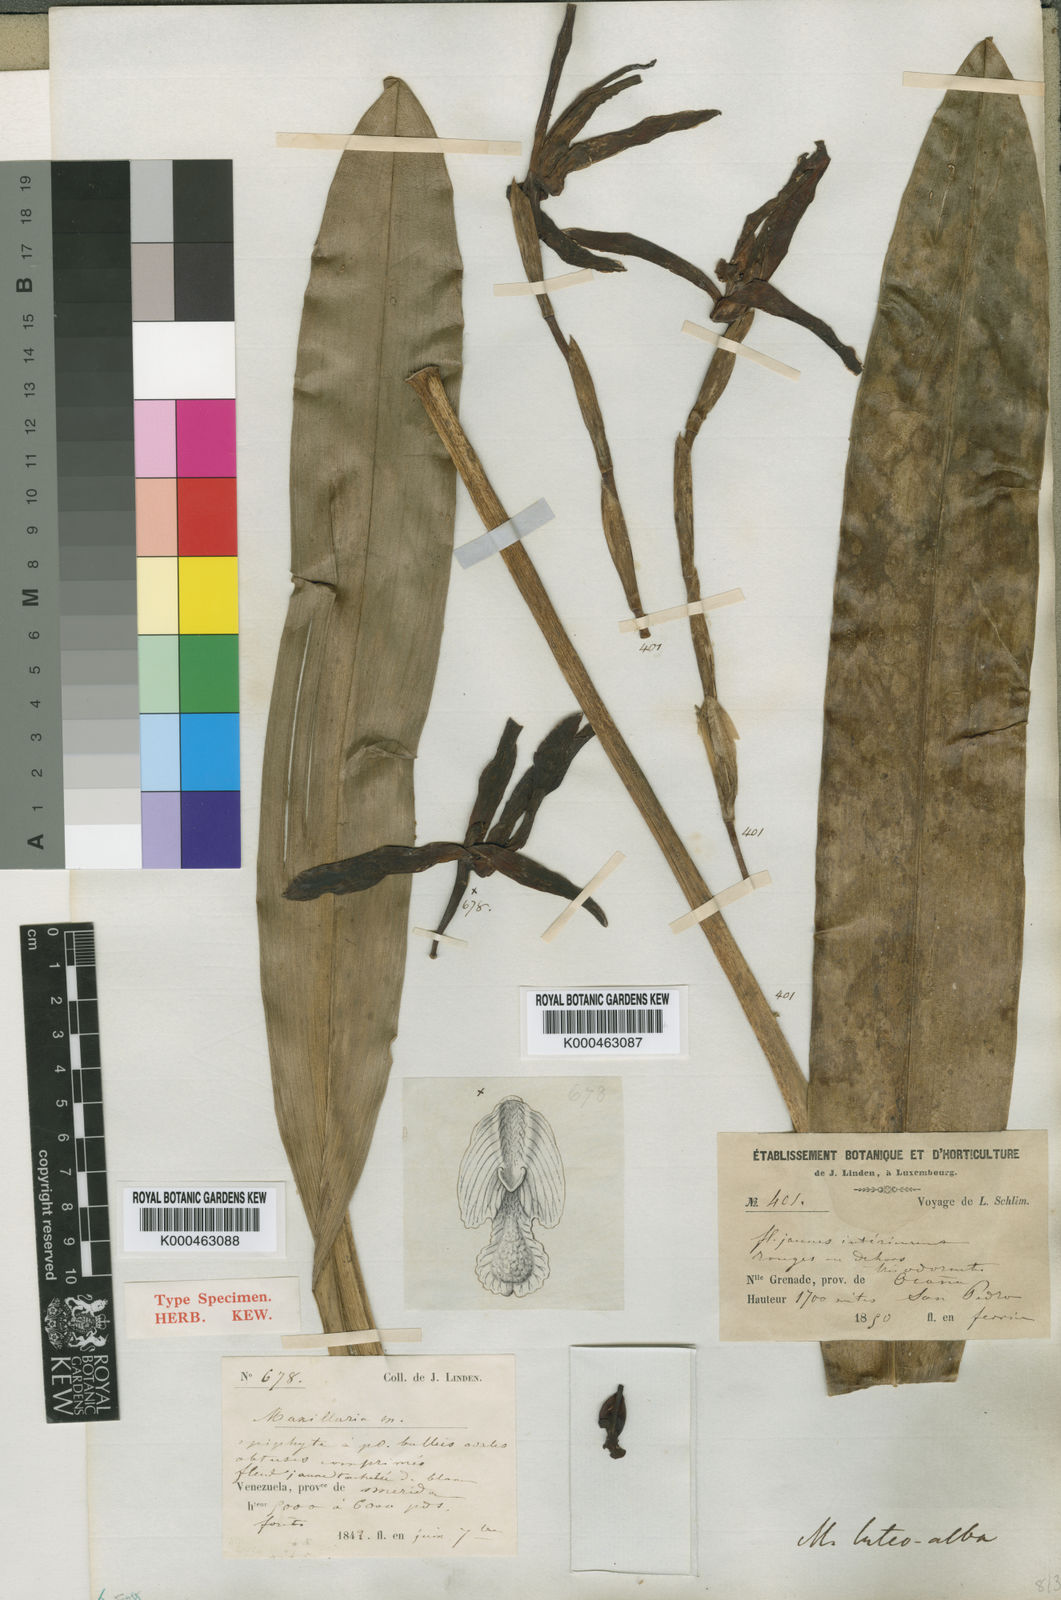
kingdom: Plantae
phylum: Tracheophyta
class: Liliopsida
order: Asparagales
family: Orchidaceae
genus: Maxillaria
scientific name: Maxillaria luteoalba
